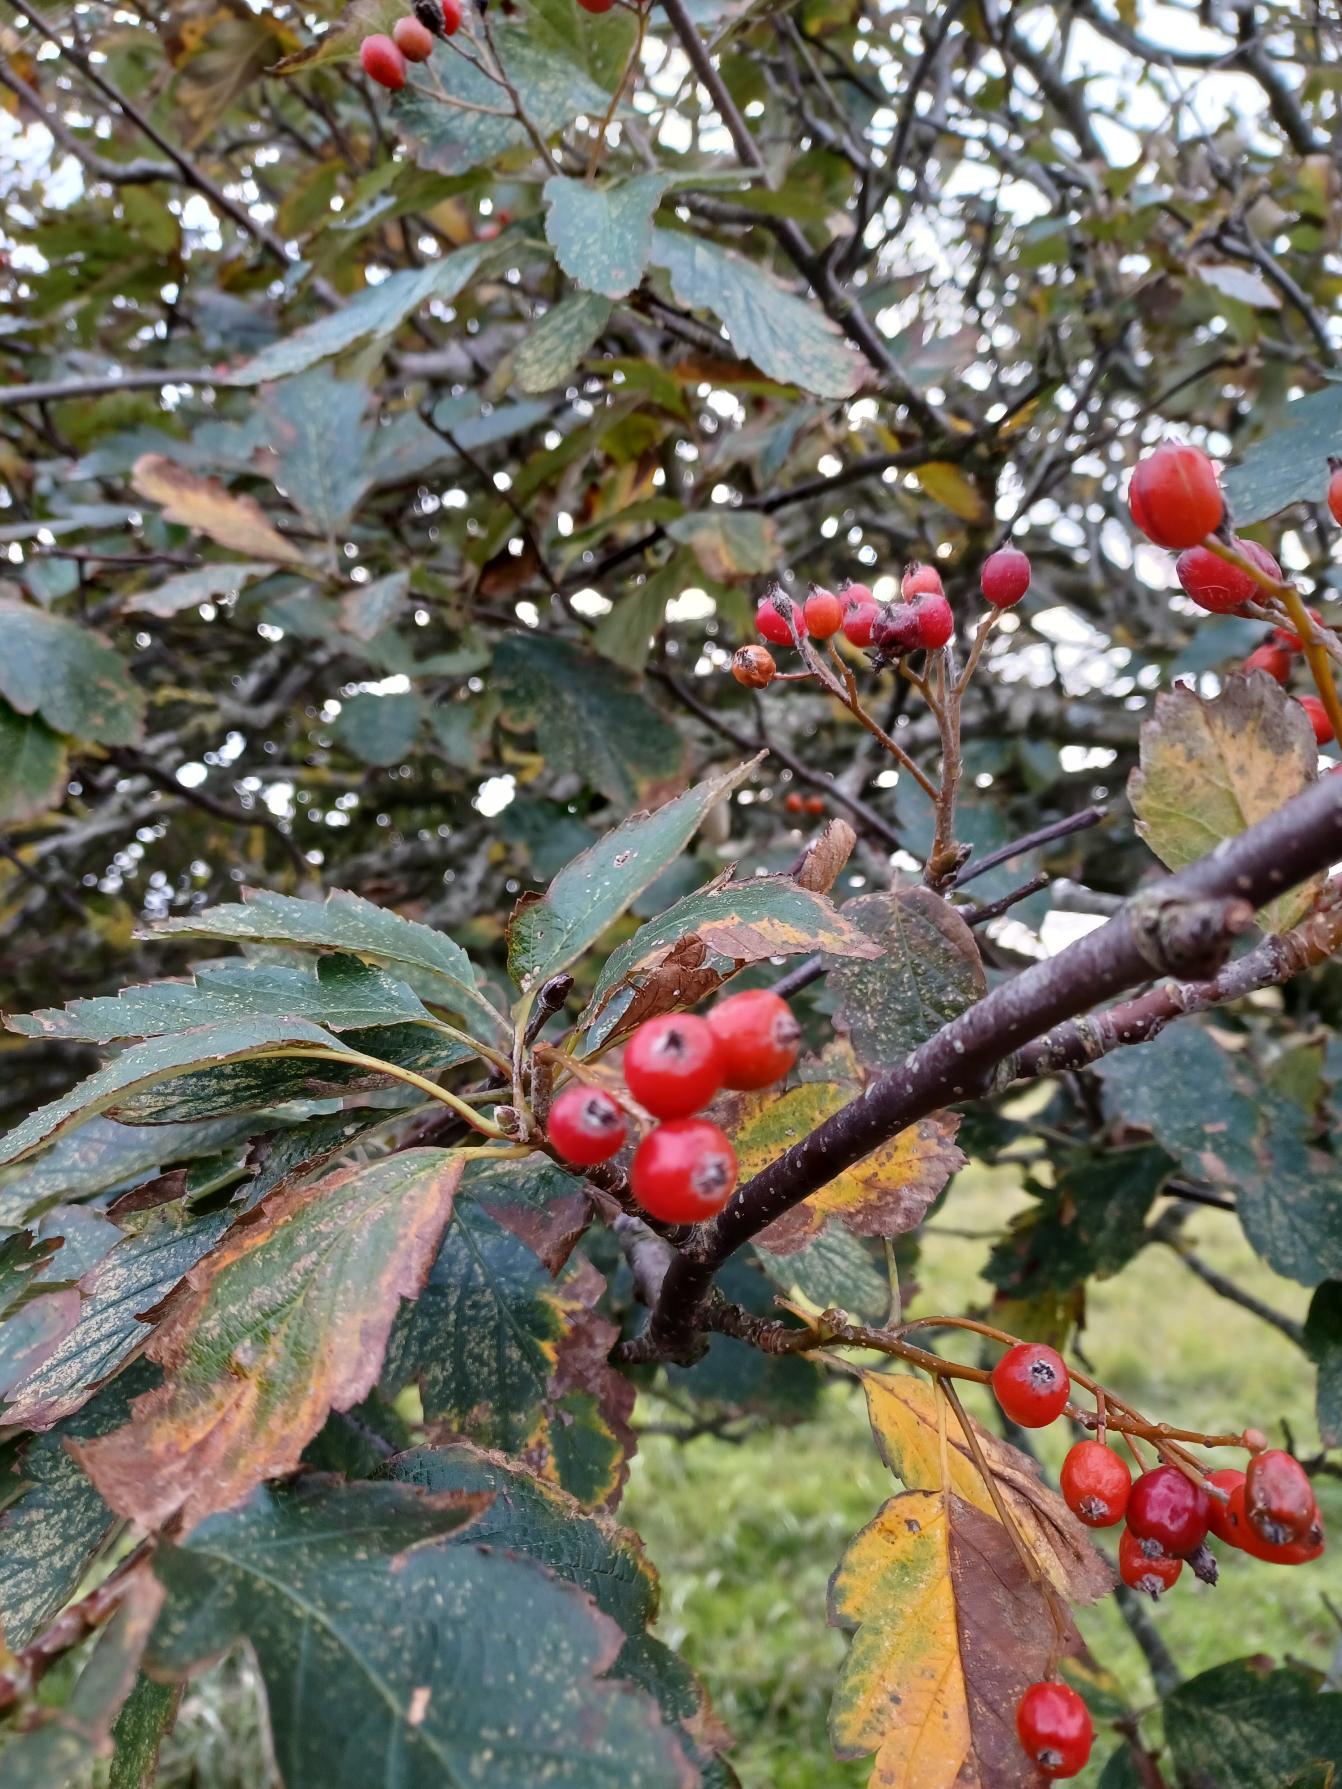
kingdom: Plantae
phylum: Tracheophyta
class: Magnoliopsida
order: Rosales
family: Rosaceae
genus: Scandosorbus
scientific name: Scandosorbus intermedia
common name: Selje-røn
